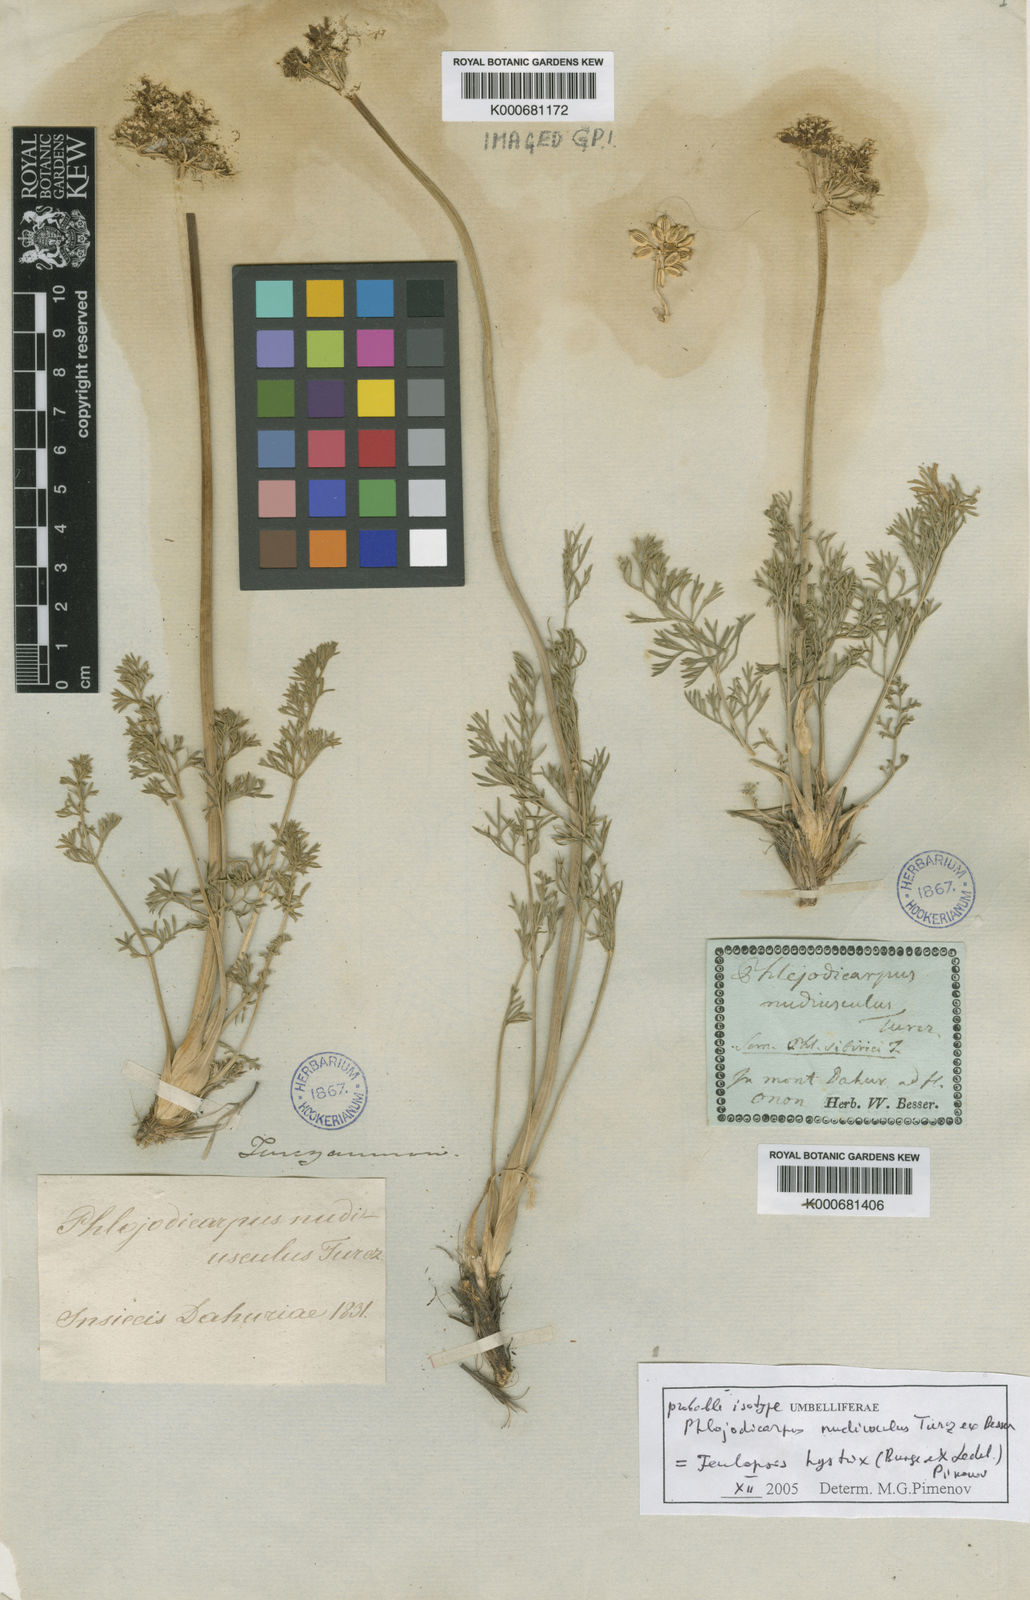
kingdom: Plantae
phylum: Tracheophyta
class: Magnoliopsida
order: Apiales
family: Apiaceae
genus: Phlojodicarpus
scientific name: Phlojodicarpus sibiricus
